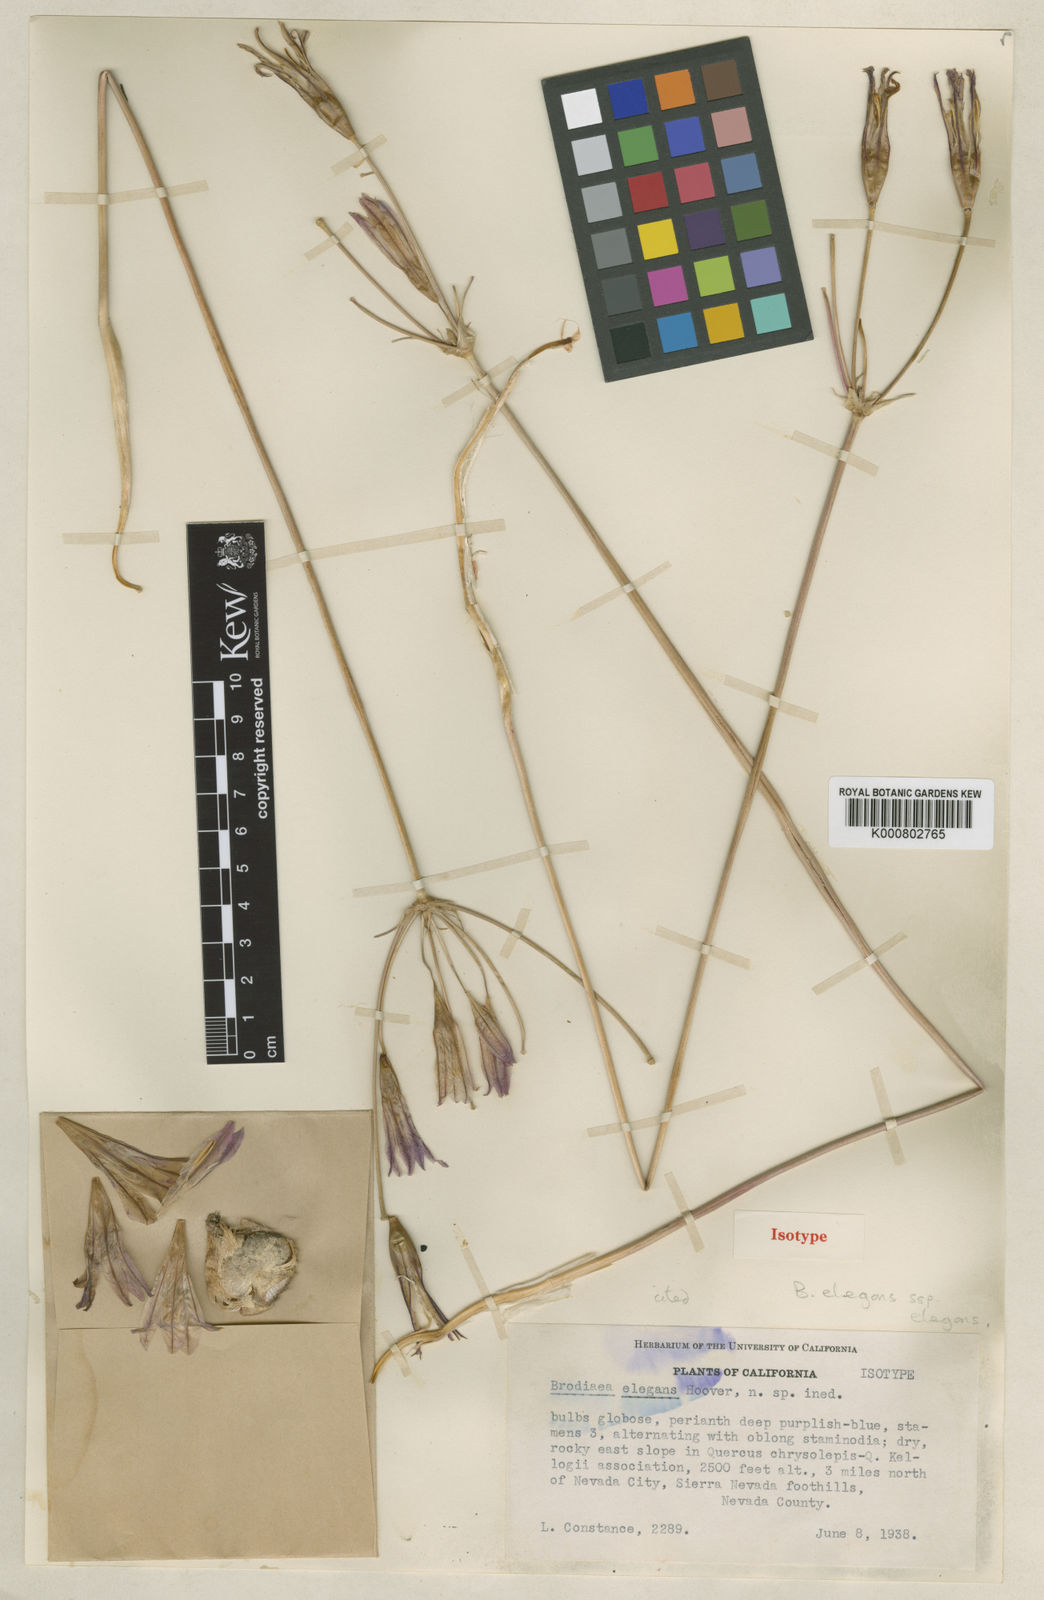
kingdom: Plantae
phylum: Tracheophyta
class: Liliopsida
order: Asparagales
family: Asparagaceae
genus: Brodiaea
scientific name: Brodiaea elegans
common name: Elegant cluster-lily
